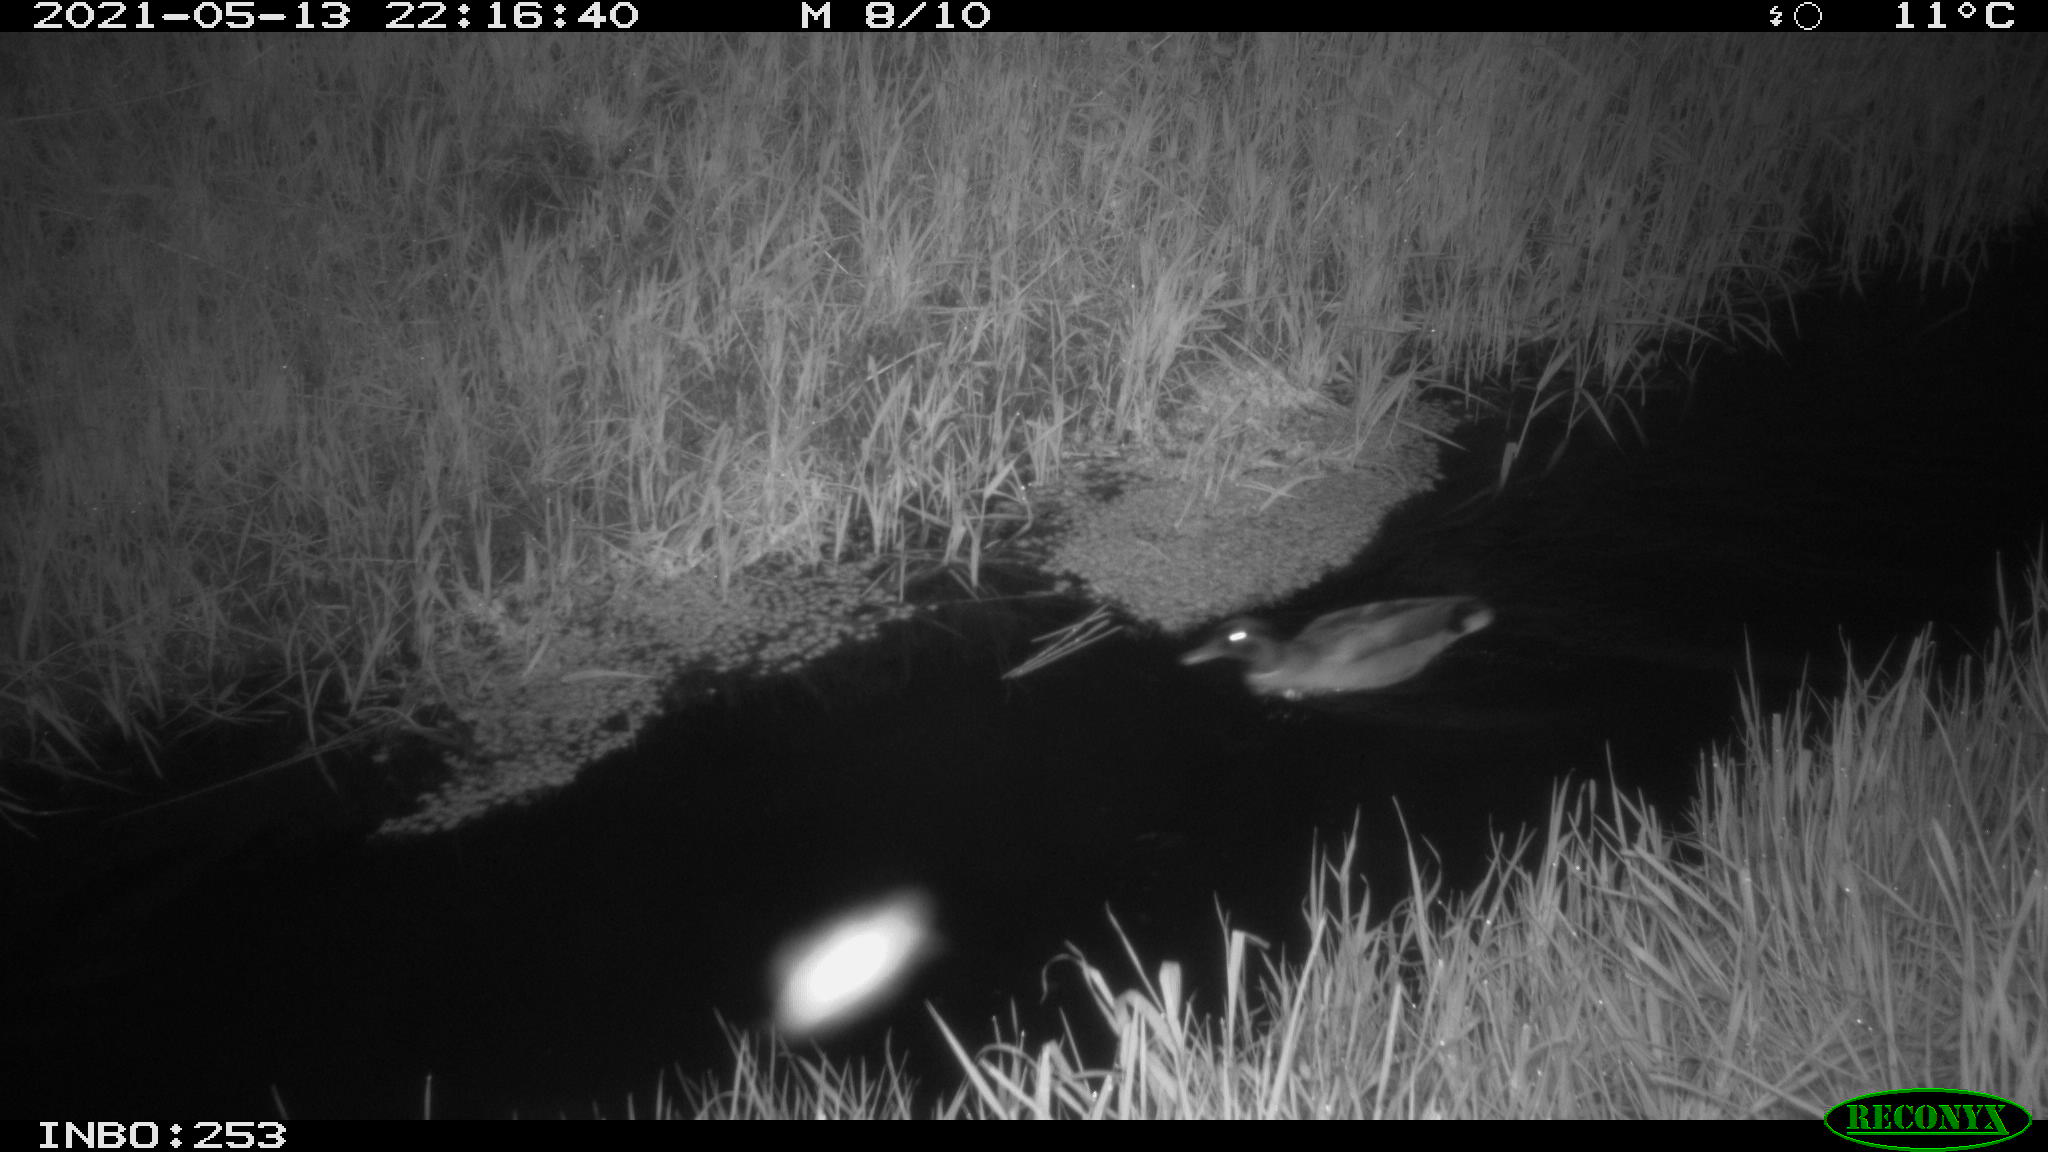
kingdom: Animalia
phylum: Chordata
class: Aves
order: Anseriformes
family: Anatidae
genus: Anas
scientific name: Anas platyrhynchos
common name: Mallard
